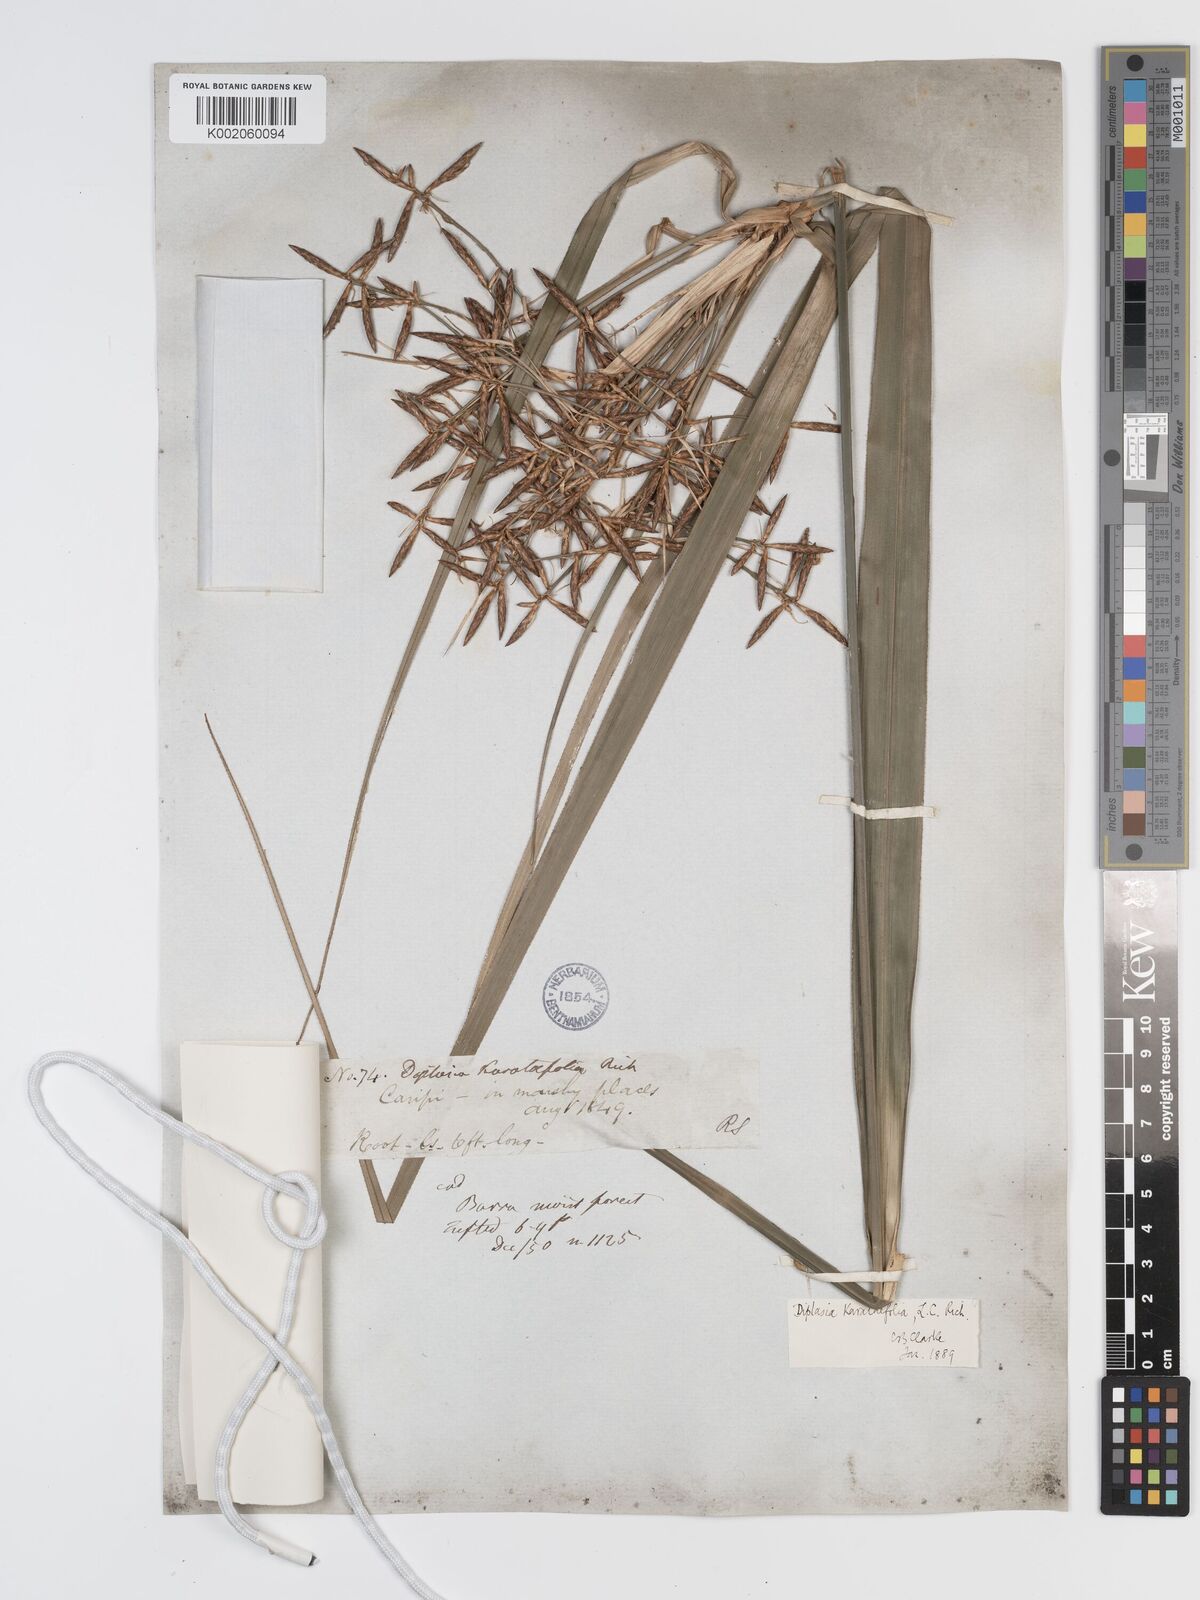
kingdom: Plantae
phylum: Tracheophyta
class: Liliopsida
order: Poales
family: Cyperaceae
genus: Diplasia
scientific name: Diplasia karatifolia
